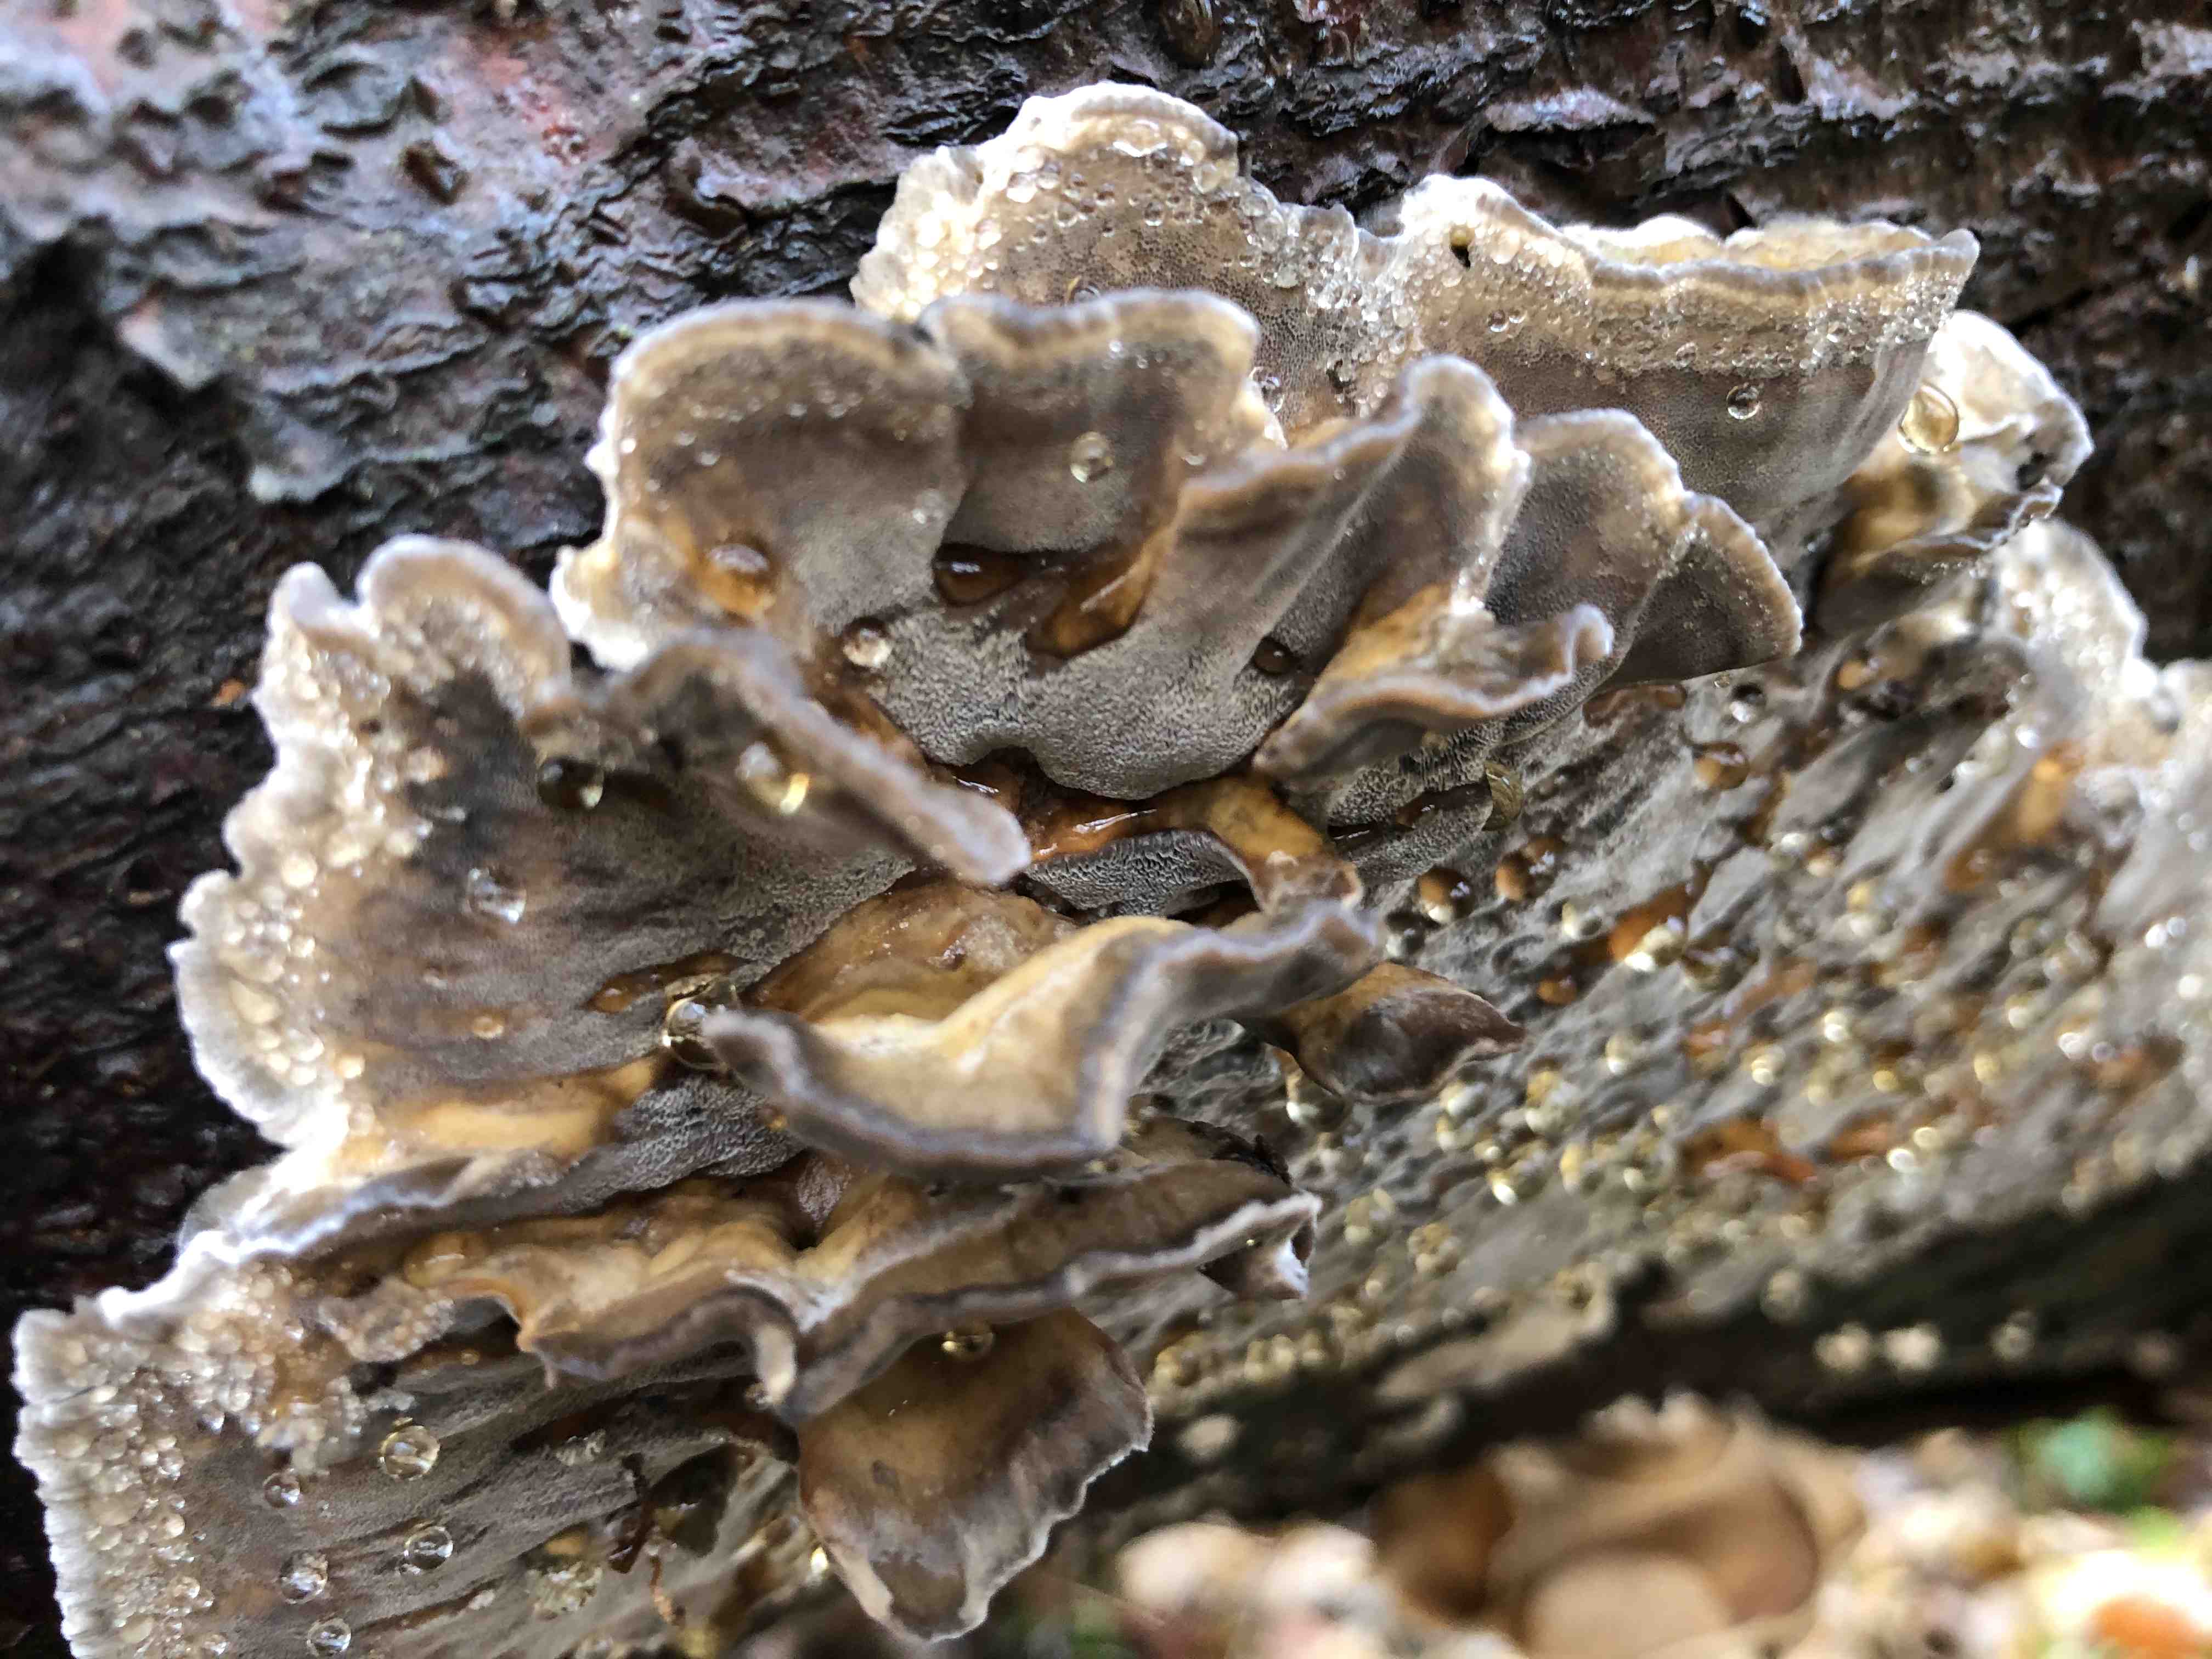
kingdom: Fungi
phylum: Basidiomycota
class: Agaricomycetes
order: Polyporales
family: Phanerochaetaceae
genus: Bjerkandera
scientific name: Bjerkandera adusta
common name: sveden sodporesvamp
